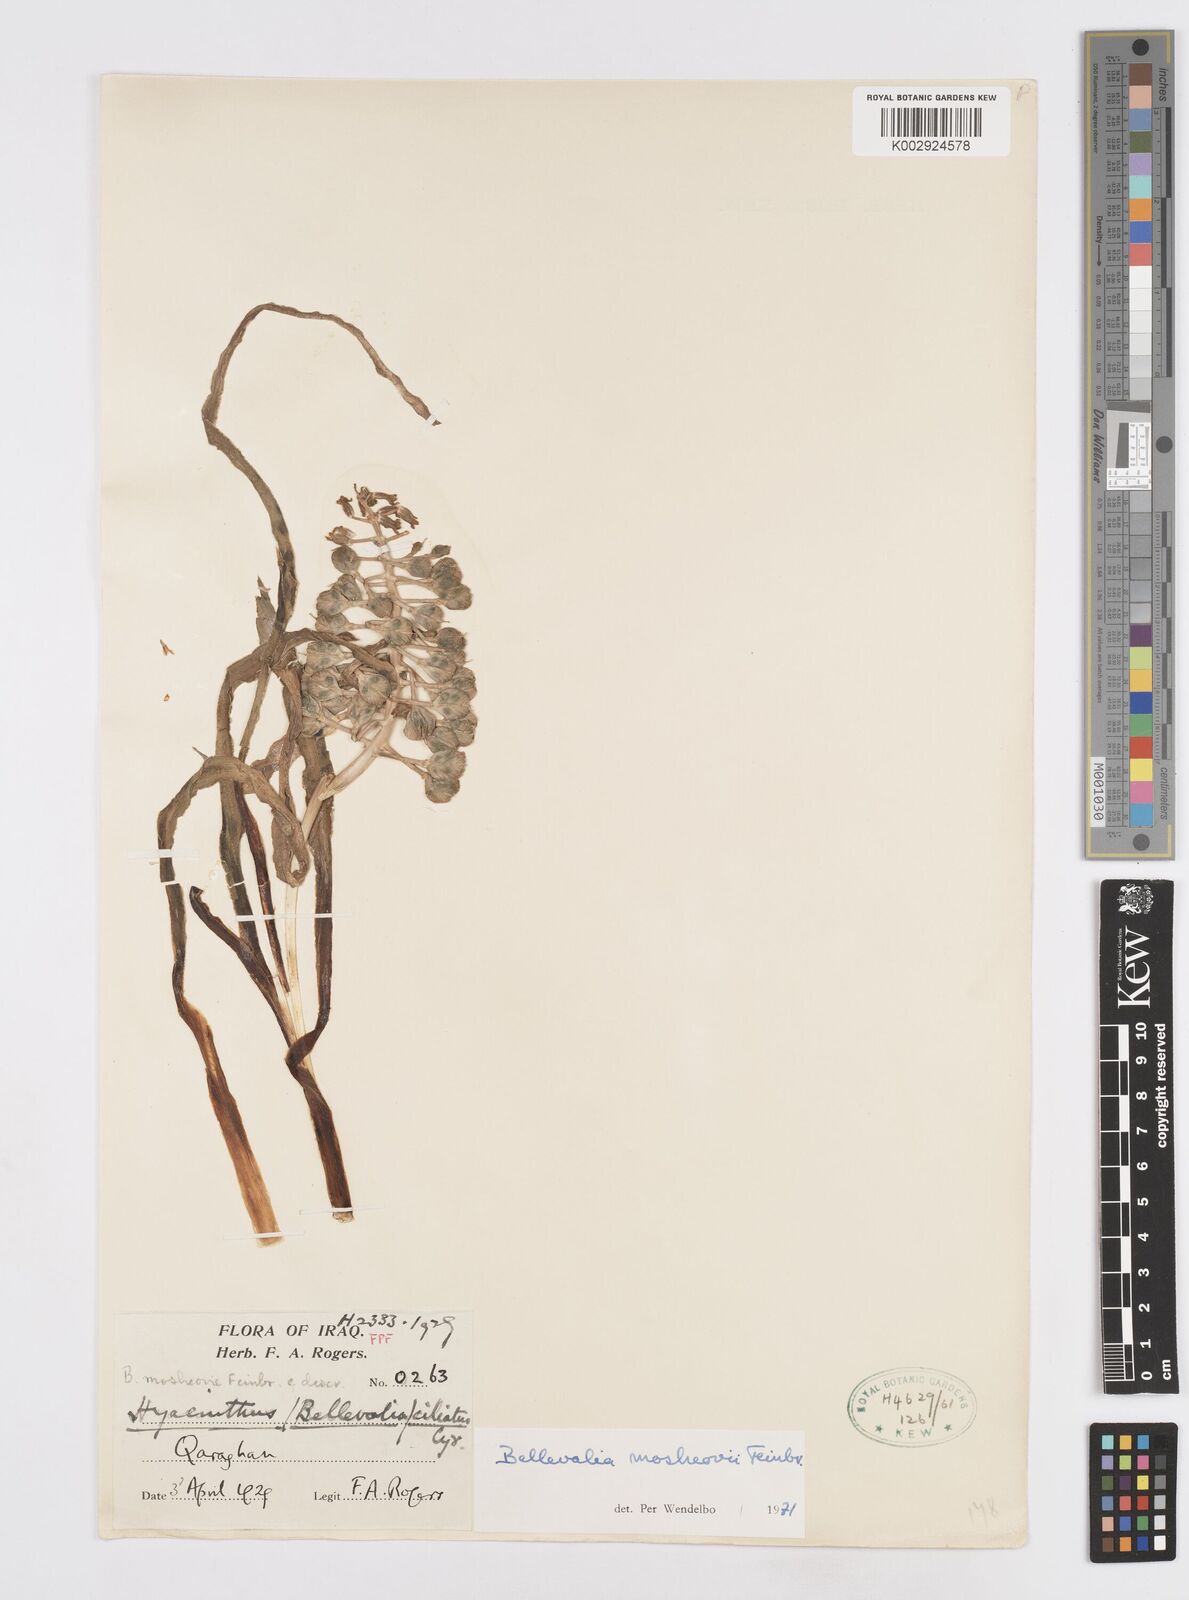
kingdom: Plantae
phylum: Tracheophyta
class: Liliopsida
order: Asparagales
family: Asparagaceae
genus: Bellevalia
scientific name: Bellevalia mosheovii
